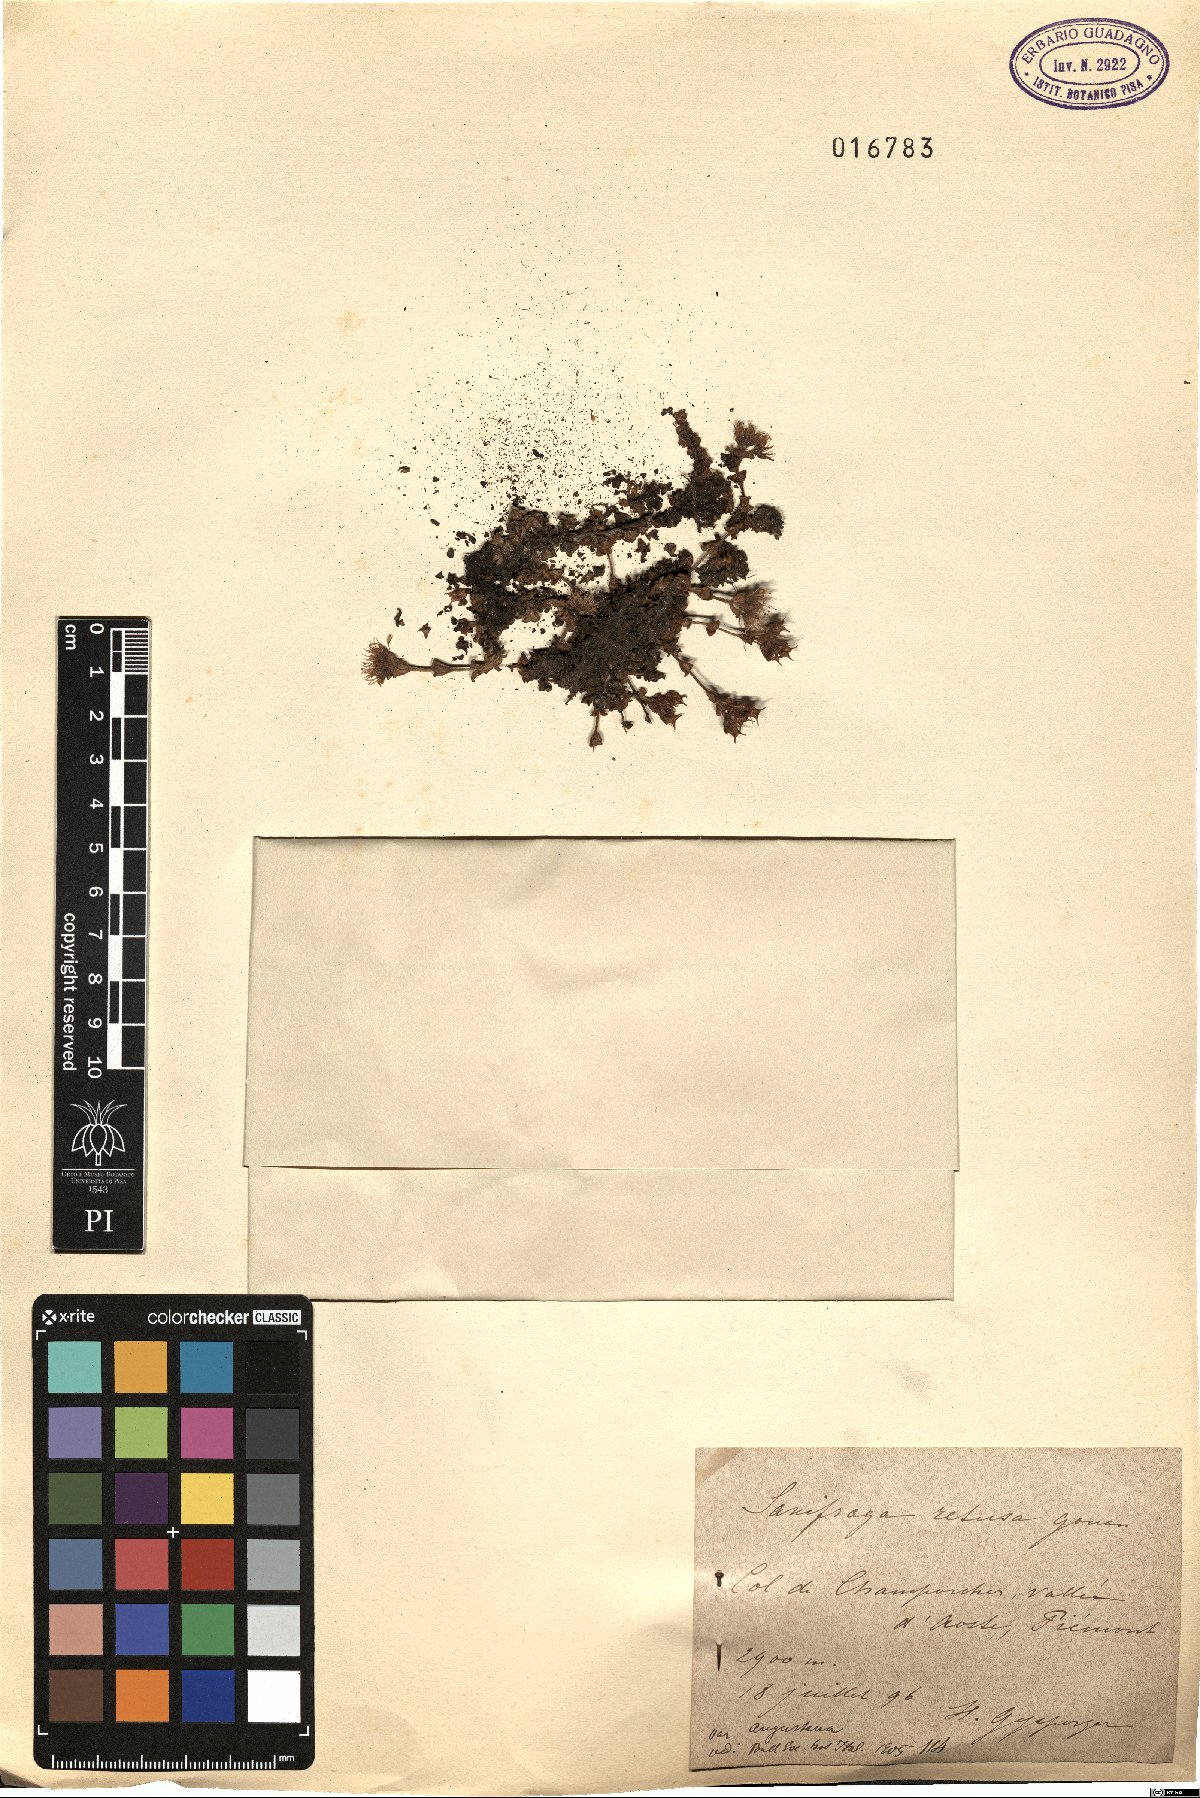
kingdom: Plantae
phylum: Tracheophyta
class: Magnoliopsida
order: Saxifragales
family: Saxifragaceae
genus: Saxifraga
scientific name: Saxifraga retusa
